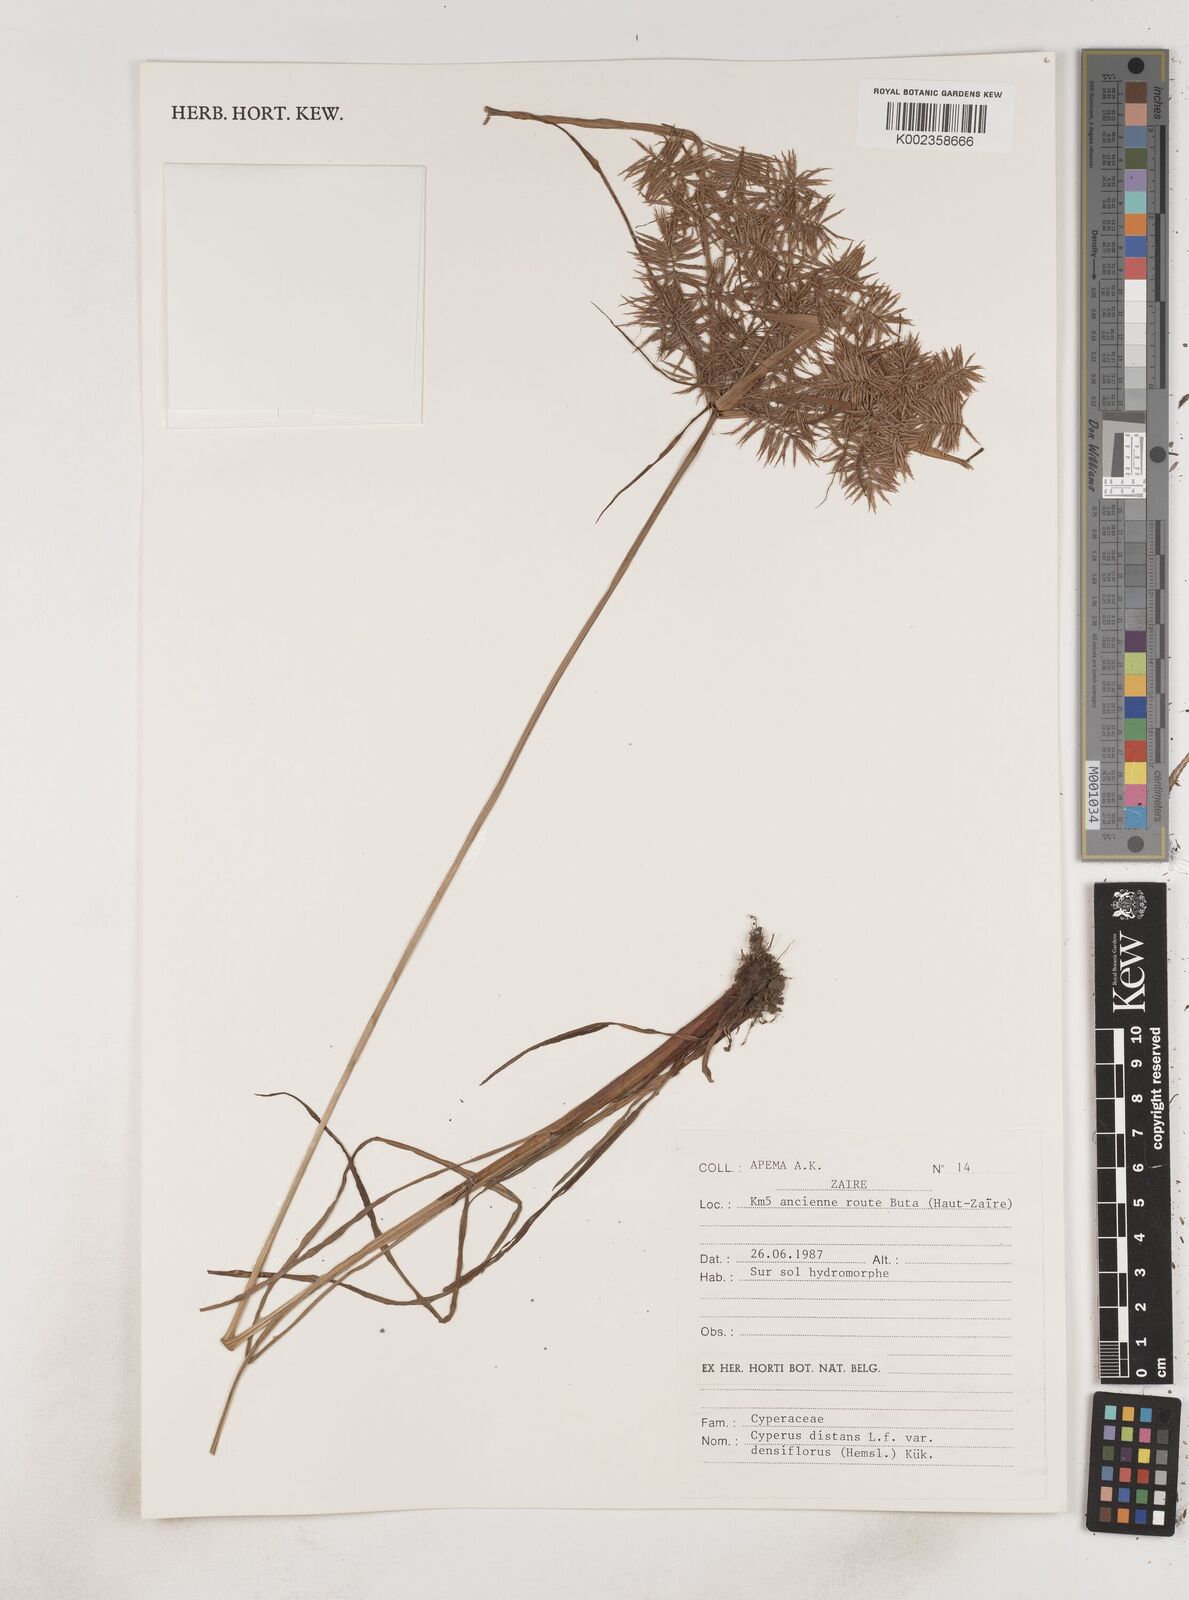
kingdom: Plantae
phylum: Tracheophyta
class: Liliopsida
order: Poales
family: Cyperaceae
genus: Cyperus
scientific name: Cyperus distans
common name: Slender cyperus
